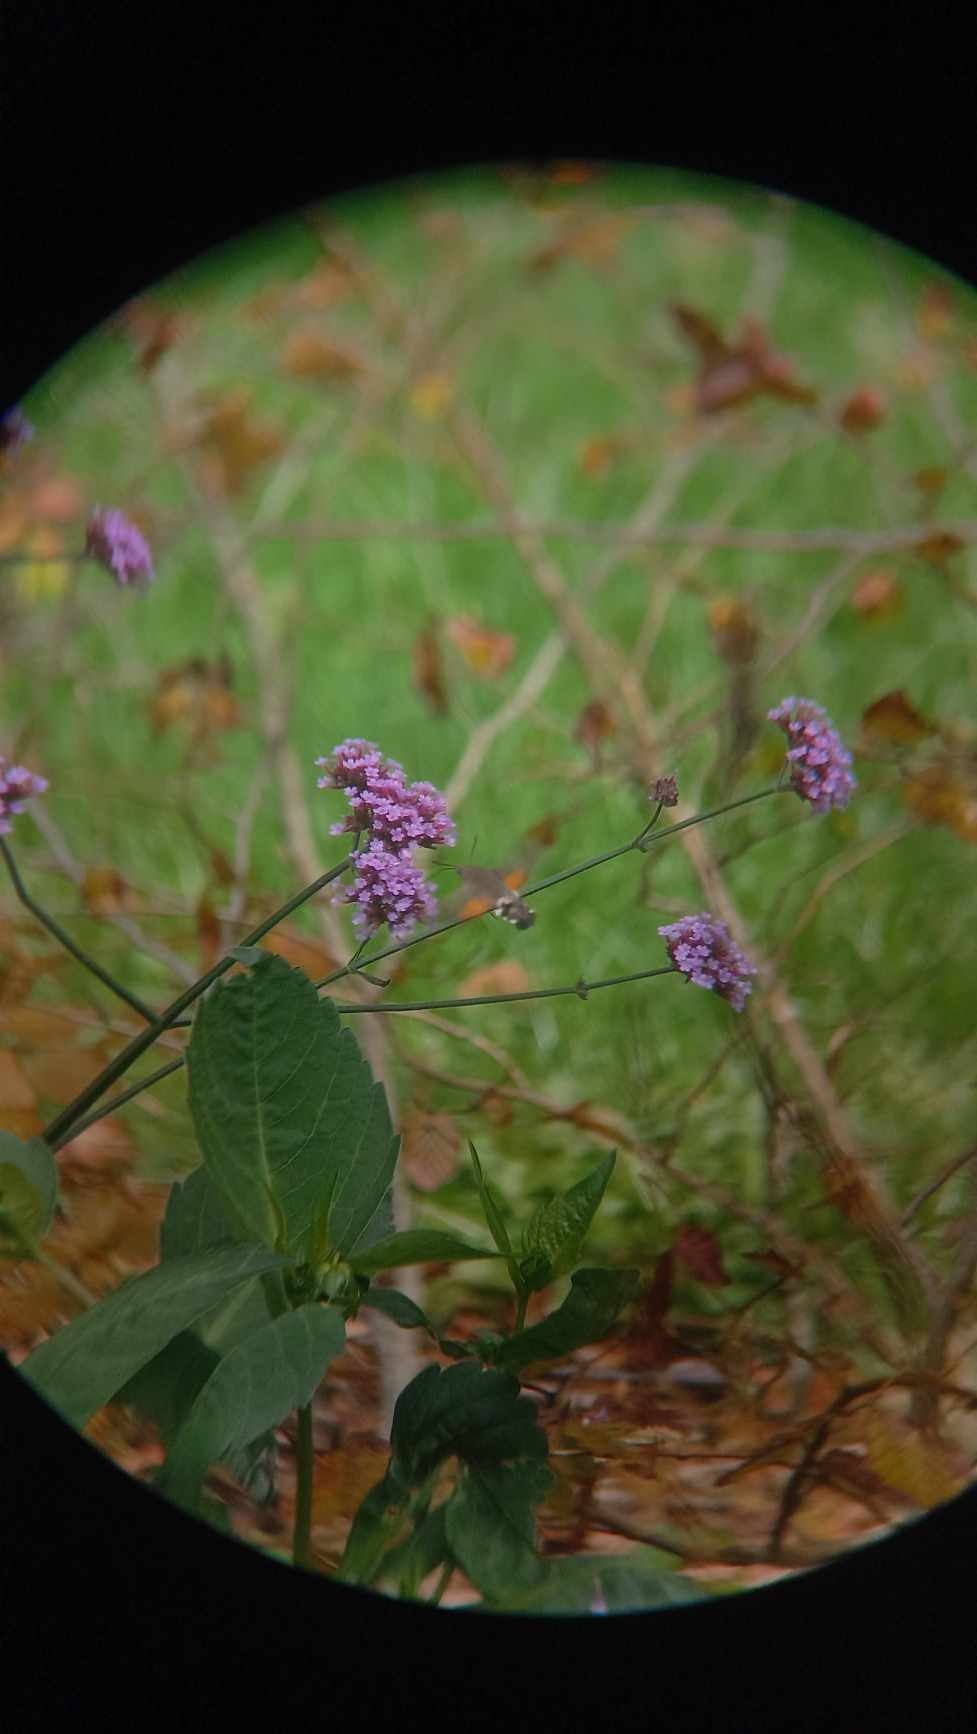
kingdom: Animalia
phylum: Arthropoda
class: Insecta
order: Lepidoptera
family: Sphingidae
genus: Macroglossum
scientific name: Macroglossum stellatarum
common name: Duehale
